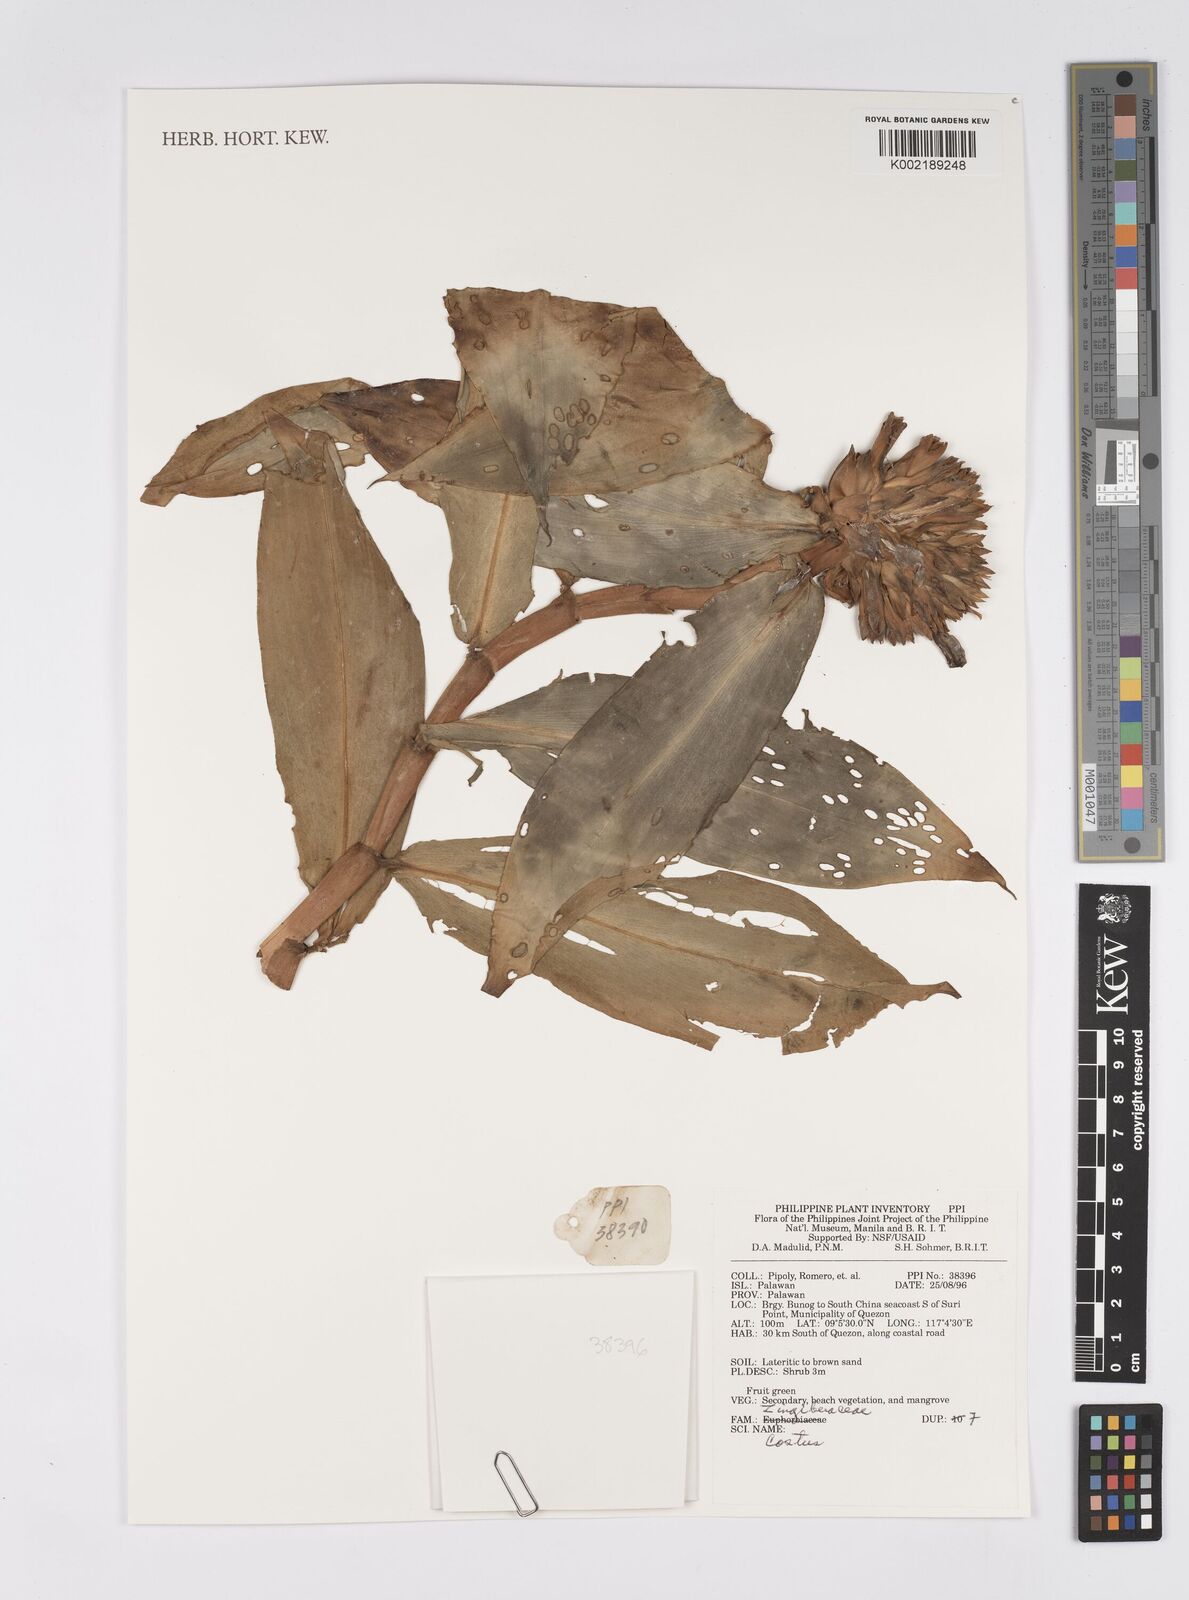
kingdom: Plantae
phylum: Tracheophyta
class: Liliopsida
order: Zingiberales
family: Costaceae
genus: Costus
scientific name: Costus
